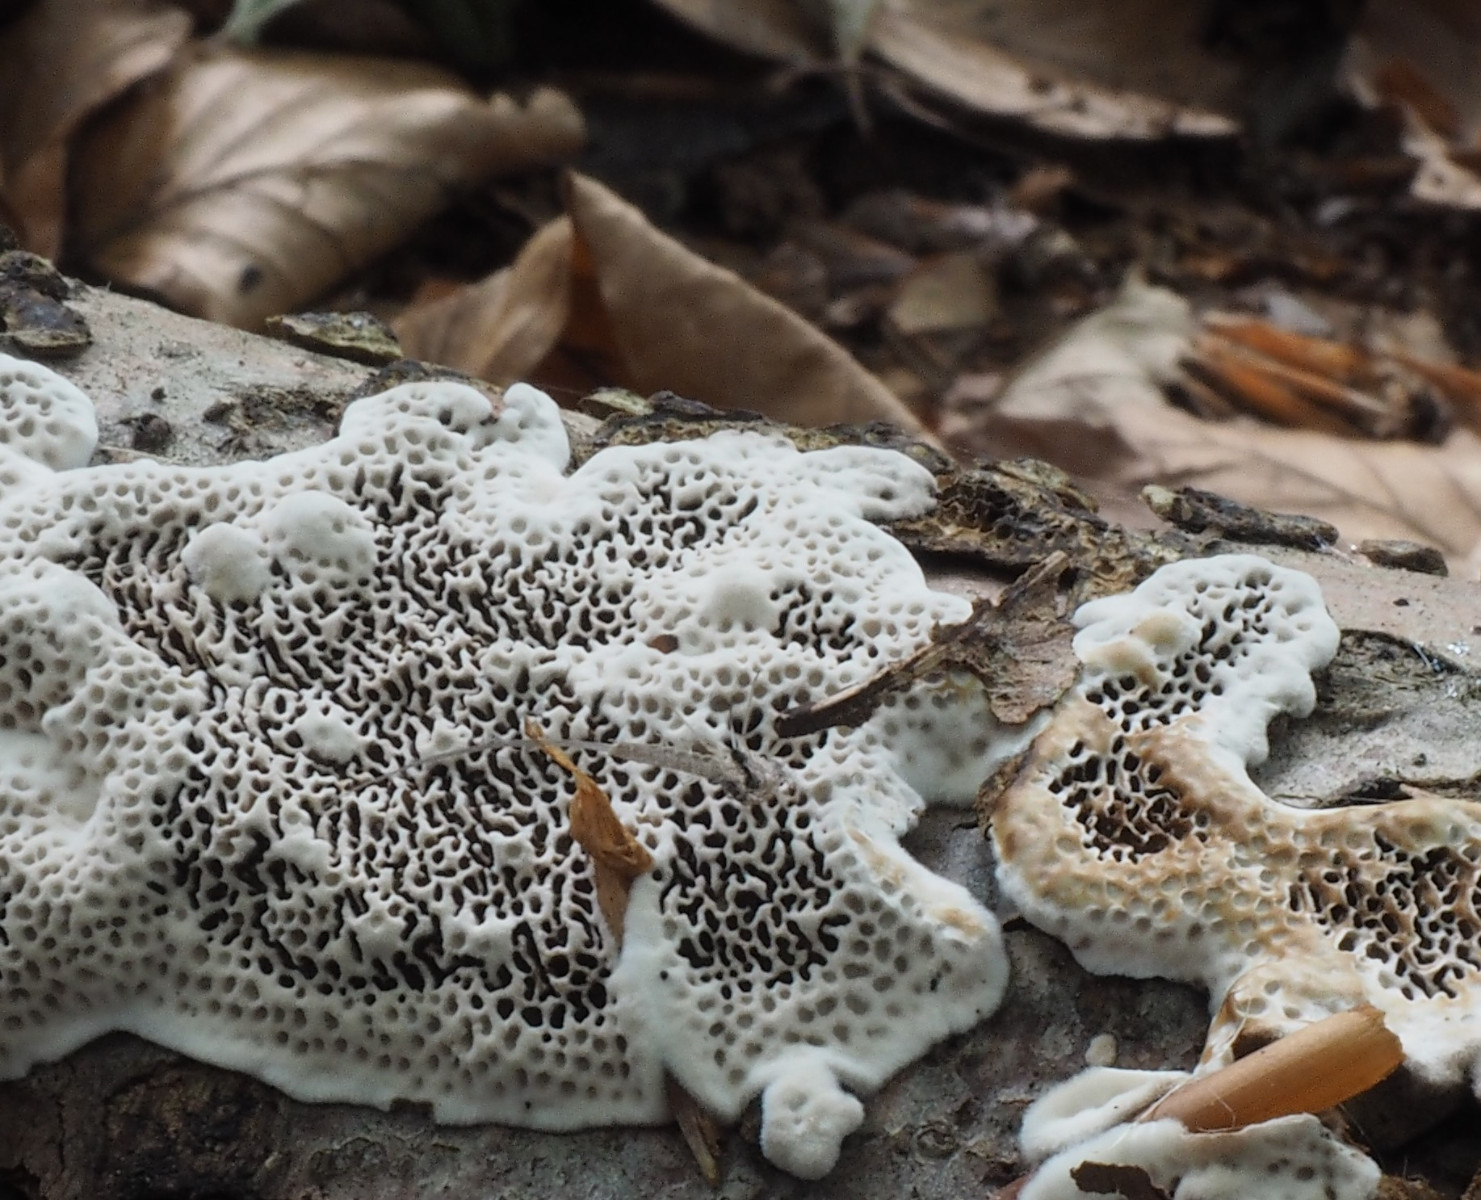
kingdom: Fungi
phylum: Basidiomycota
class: Agaricomycetes
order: Polyporales
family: Polyporaceae
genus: Podofomes
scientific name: Podofomes mollis
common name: blød begporesvamp
